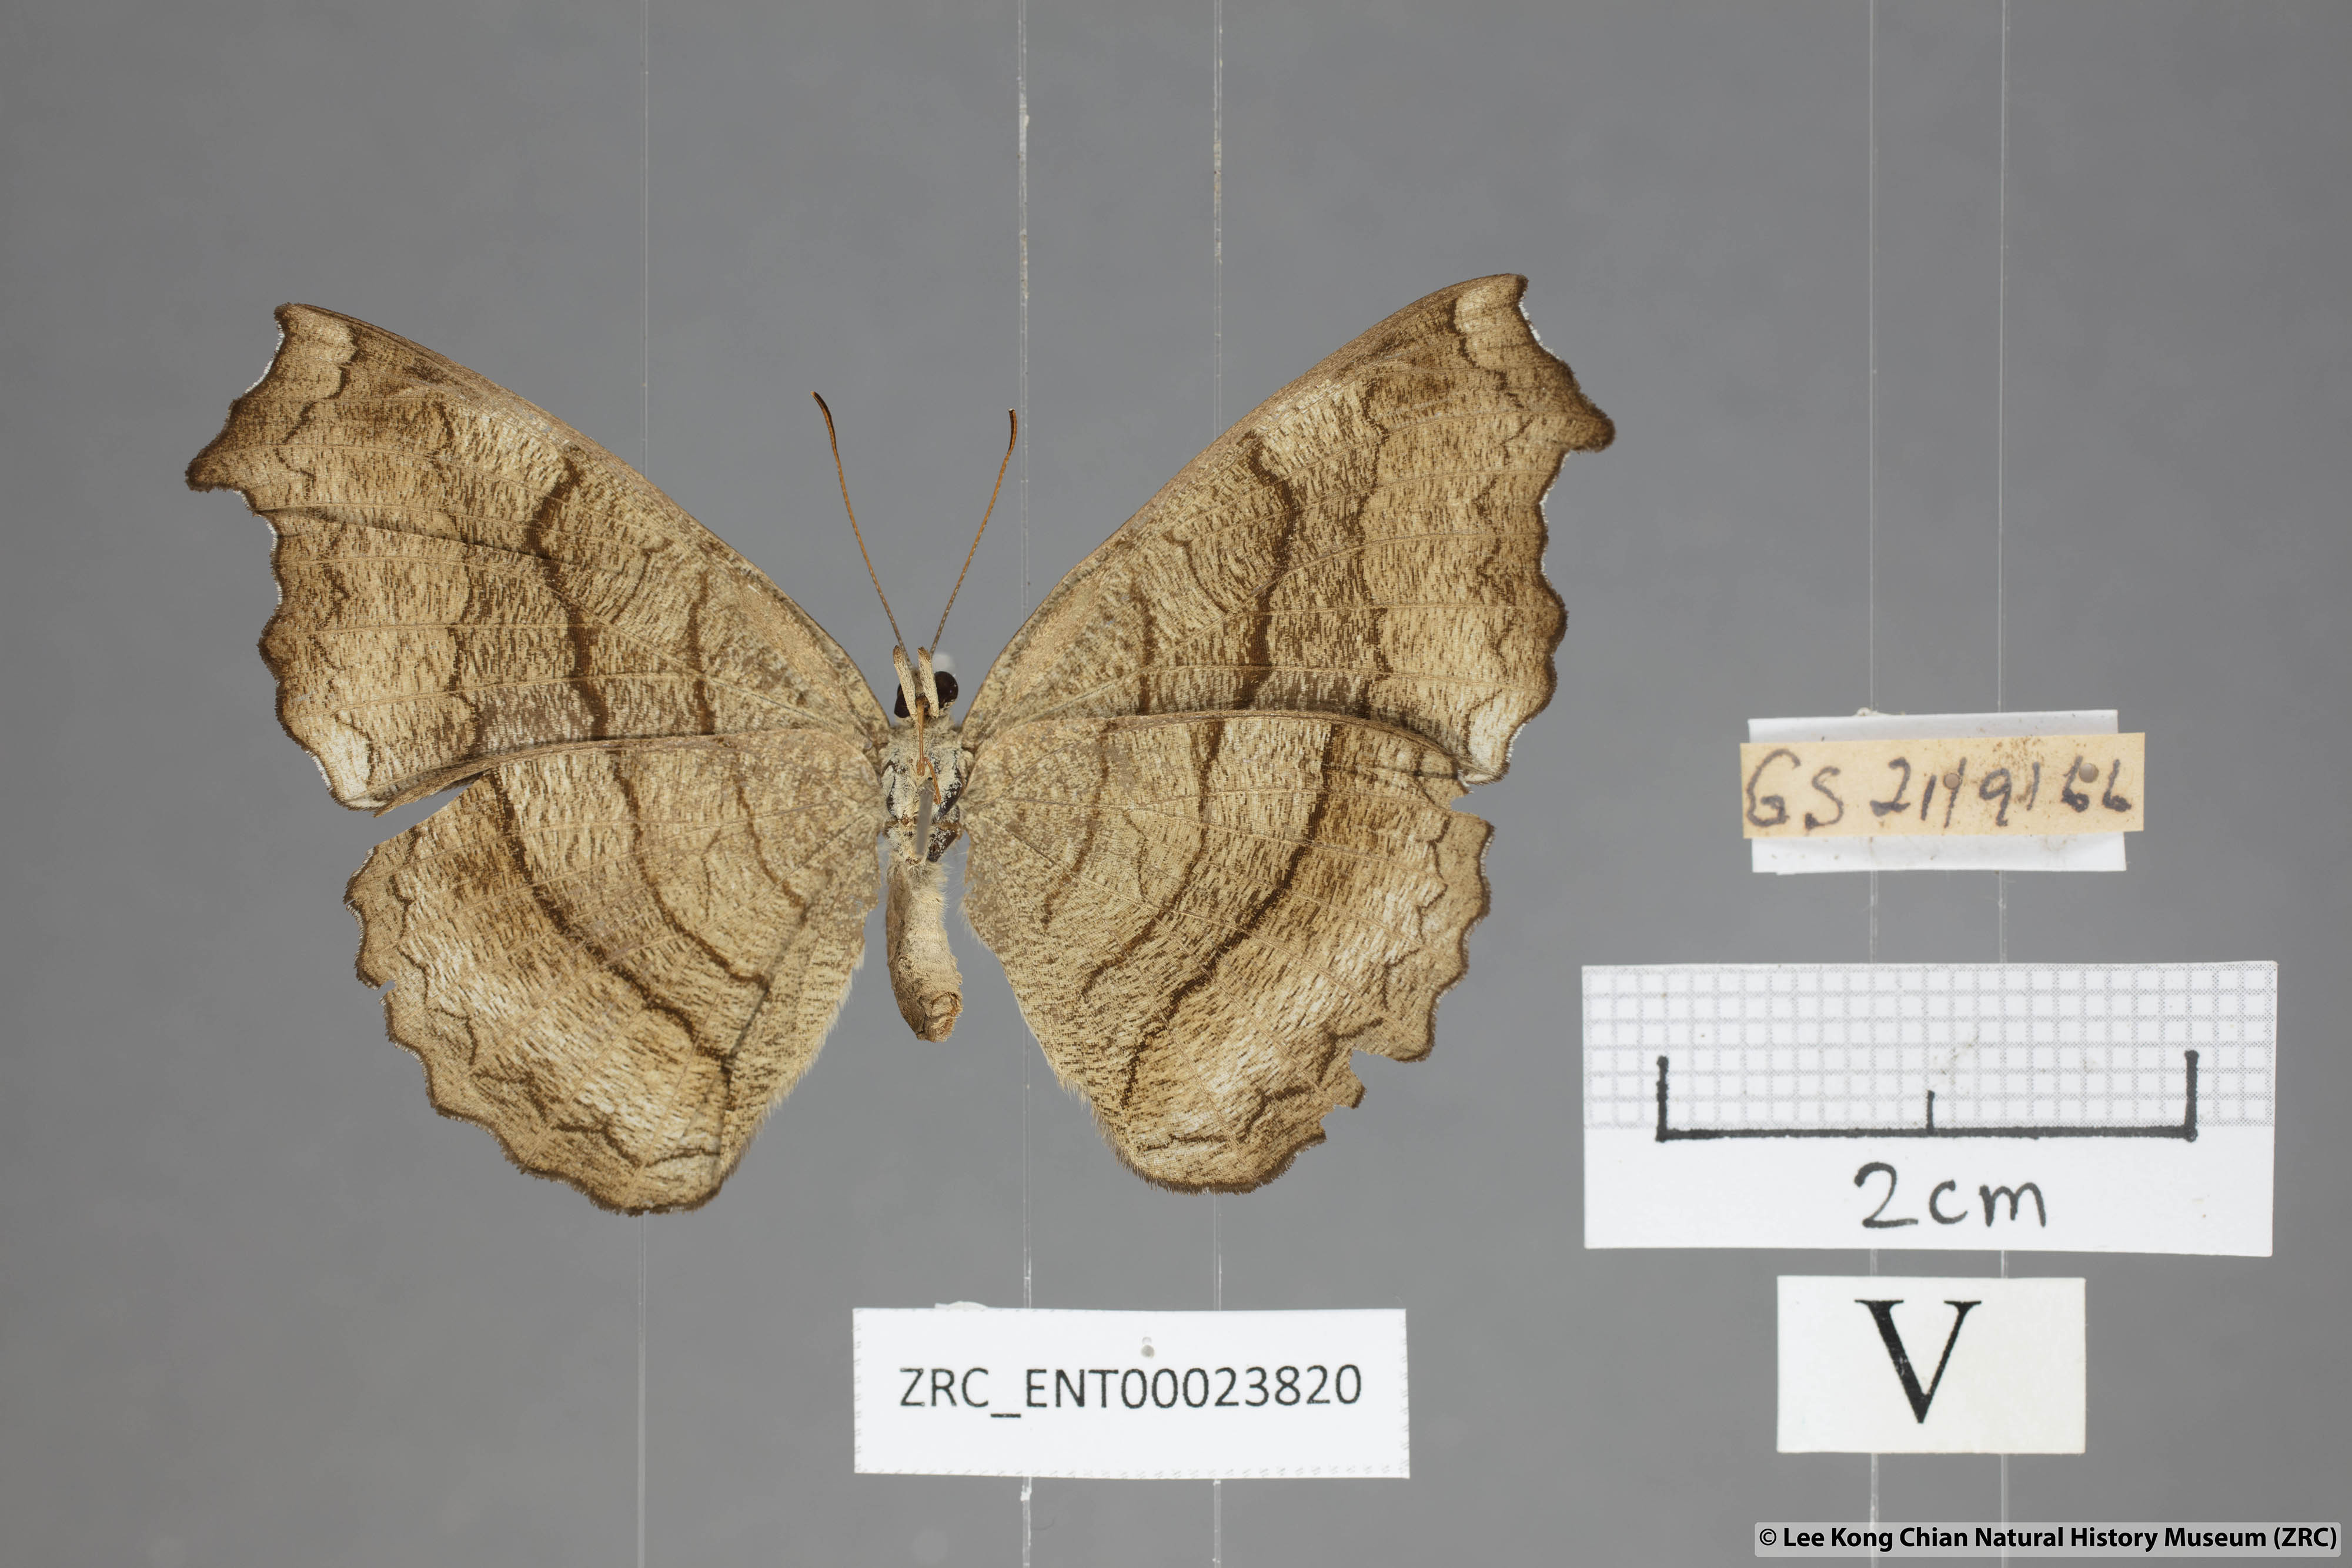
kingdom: Animalia
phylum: Arthropoda
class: Insecta
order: Lepidoptera
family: Nymphalidae
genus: Laringa
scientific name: Laringa castelnaui
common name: Blue dandy
